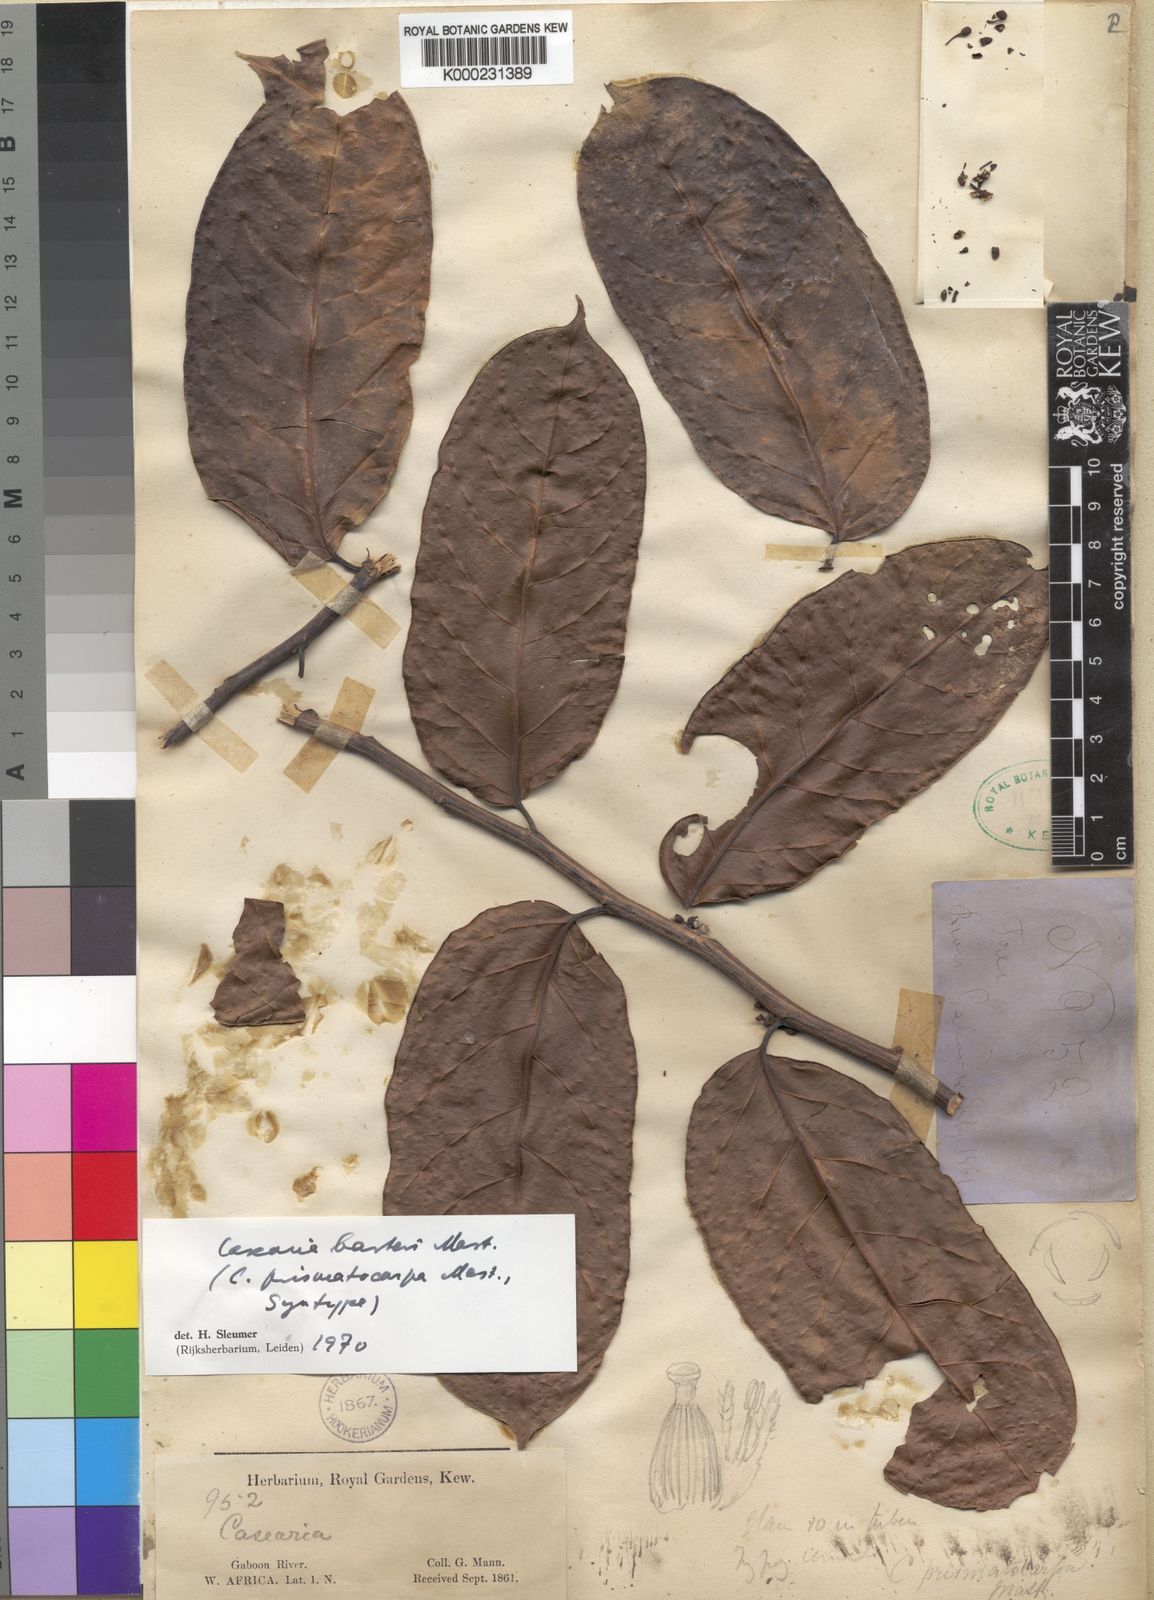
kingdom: Plantae
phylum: Tracheophyta
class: Magnoliopsida
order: Malpighiales
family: Salicaceae
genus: Casearia
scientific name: Casearia barteri
